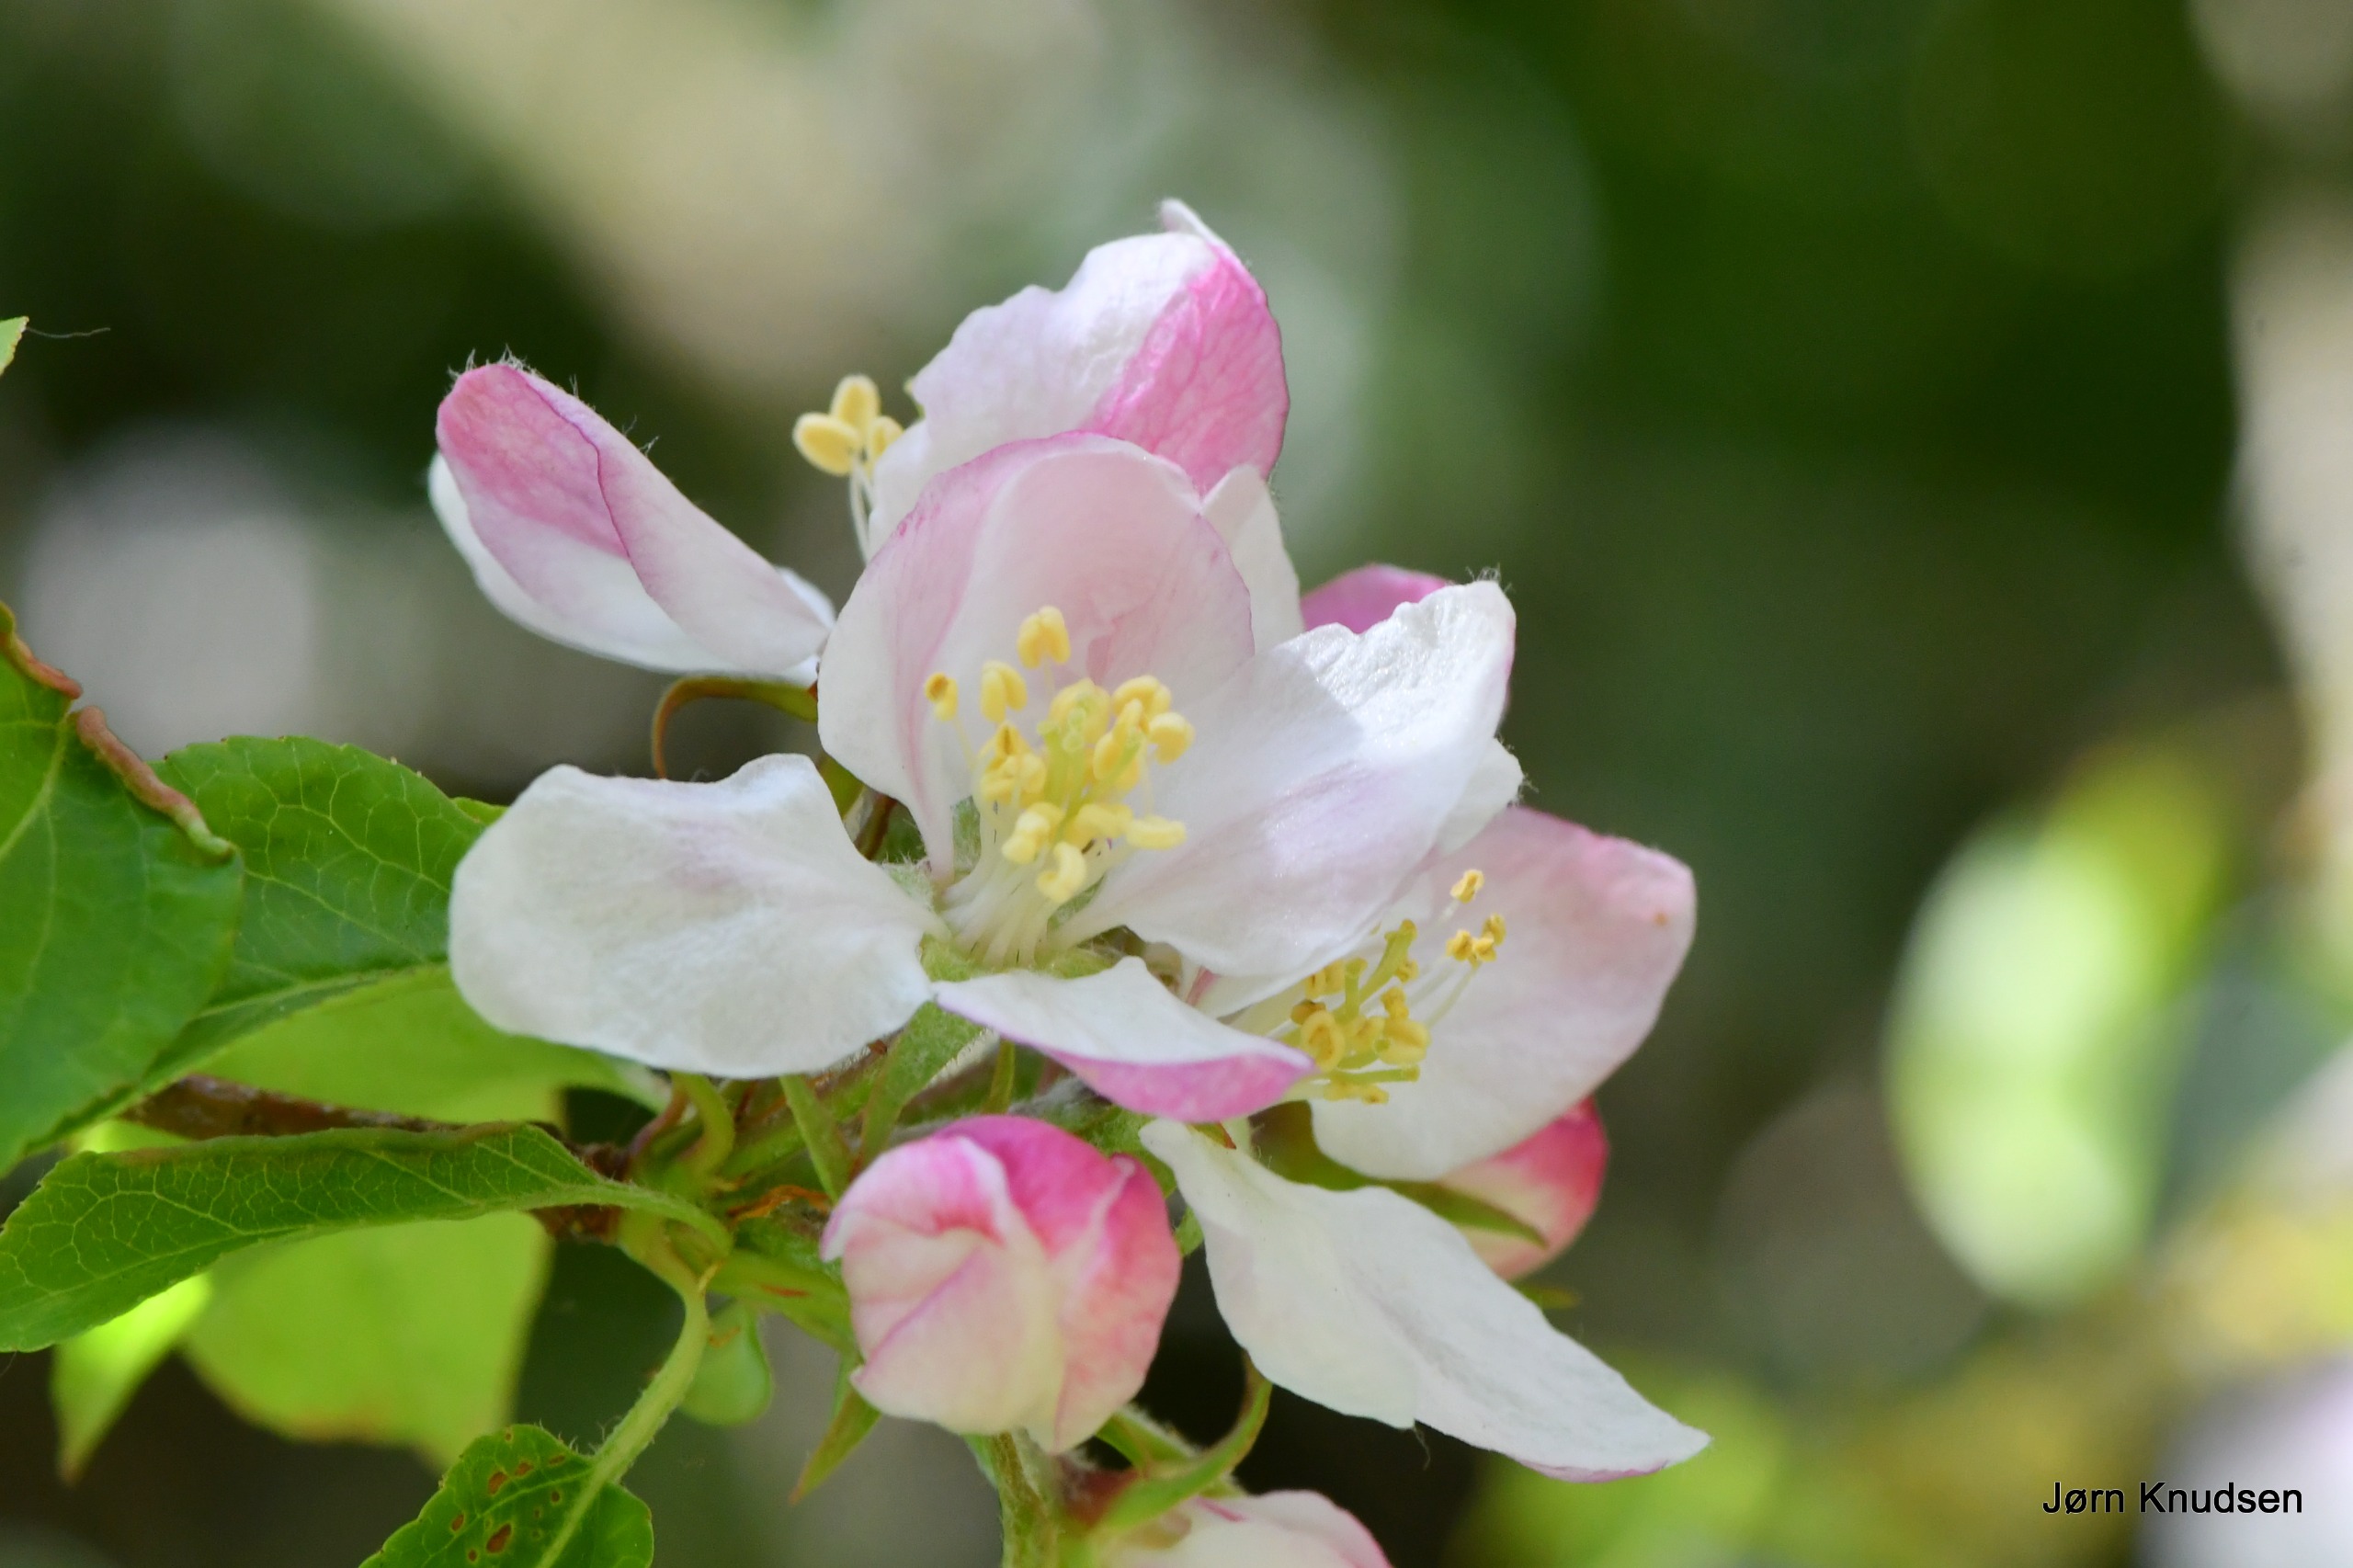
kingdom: Plantae
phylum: Tracheophyta
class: Magnoliopsida
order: Rosales
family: Rosaceae
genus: Malus
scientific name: Malus floribunda
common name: Japansk paradisæble
